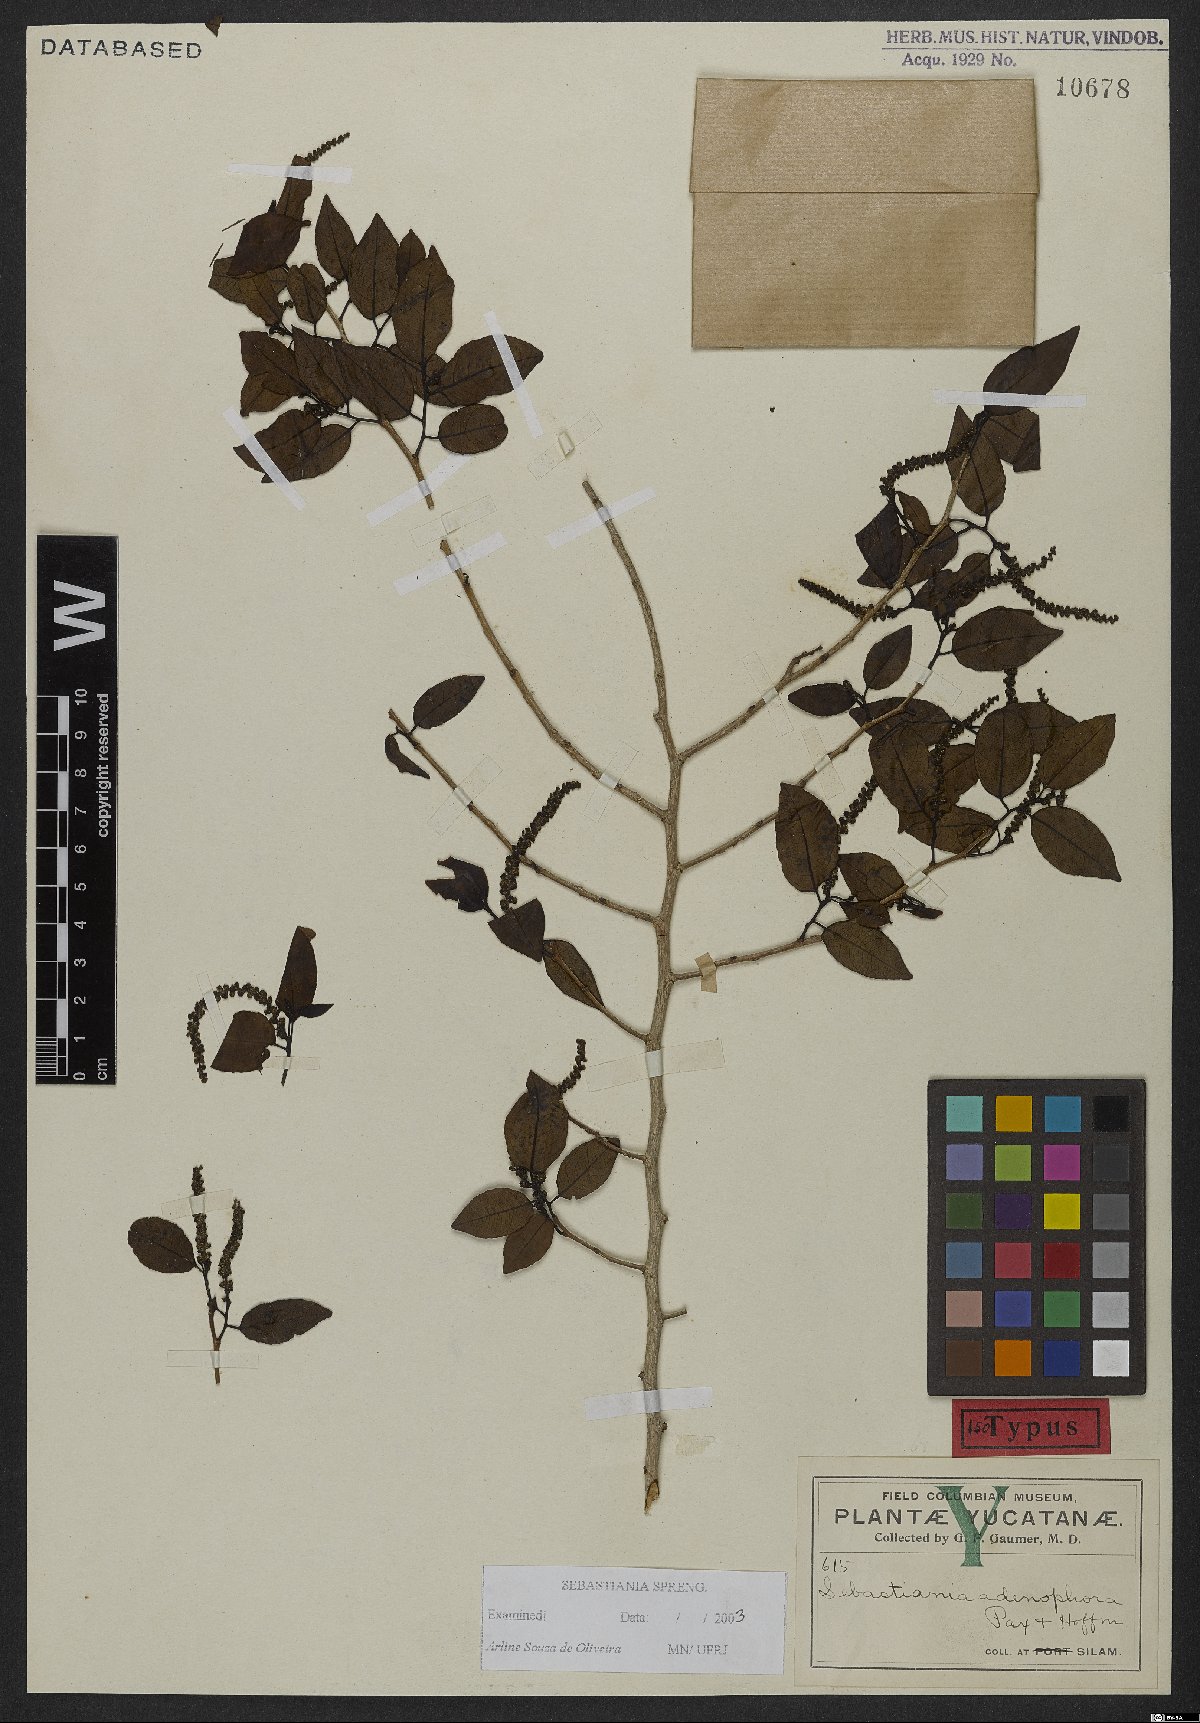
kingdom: Plantae
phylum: Tracheophyta
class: Magnoliopsida
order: Malpighiales
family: Euphorbiaceae
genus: Sebastiania
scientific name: Sebastiania glandulosa
